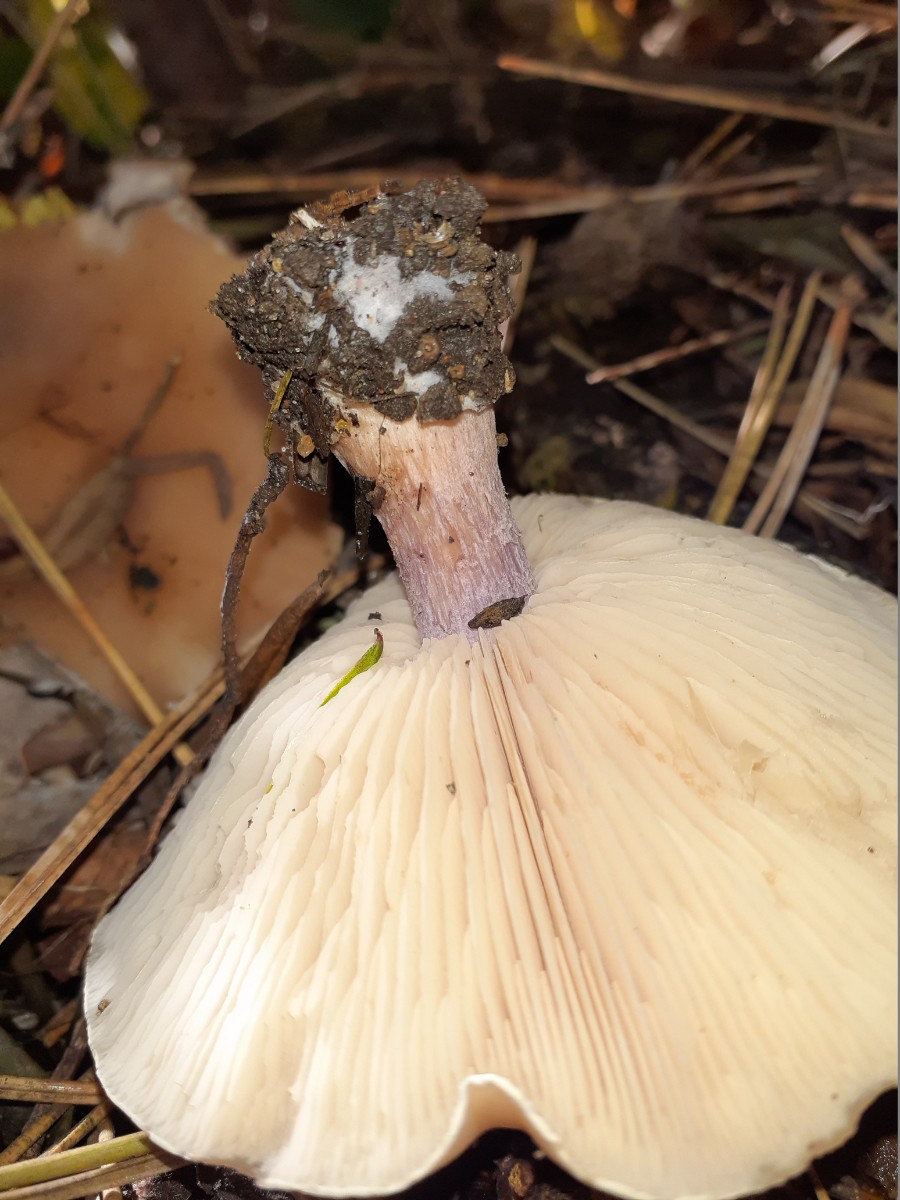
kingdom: Fungi
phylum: Basidiomycota
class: Agaricomycetes
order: Agaricales
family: Tricholomataceae
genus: Lepista
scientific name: Lepista personata
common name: bleg hekseringshat
